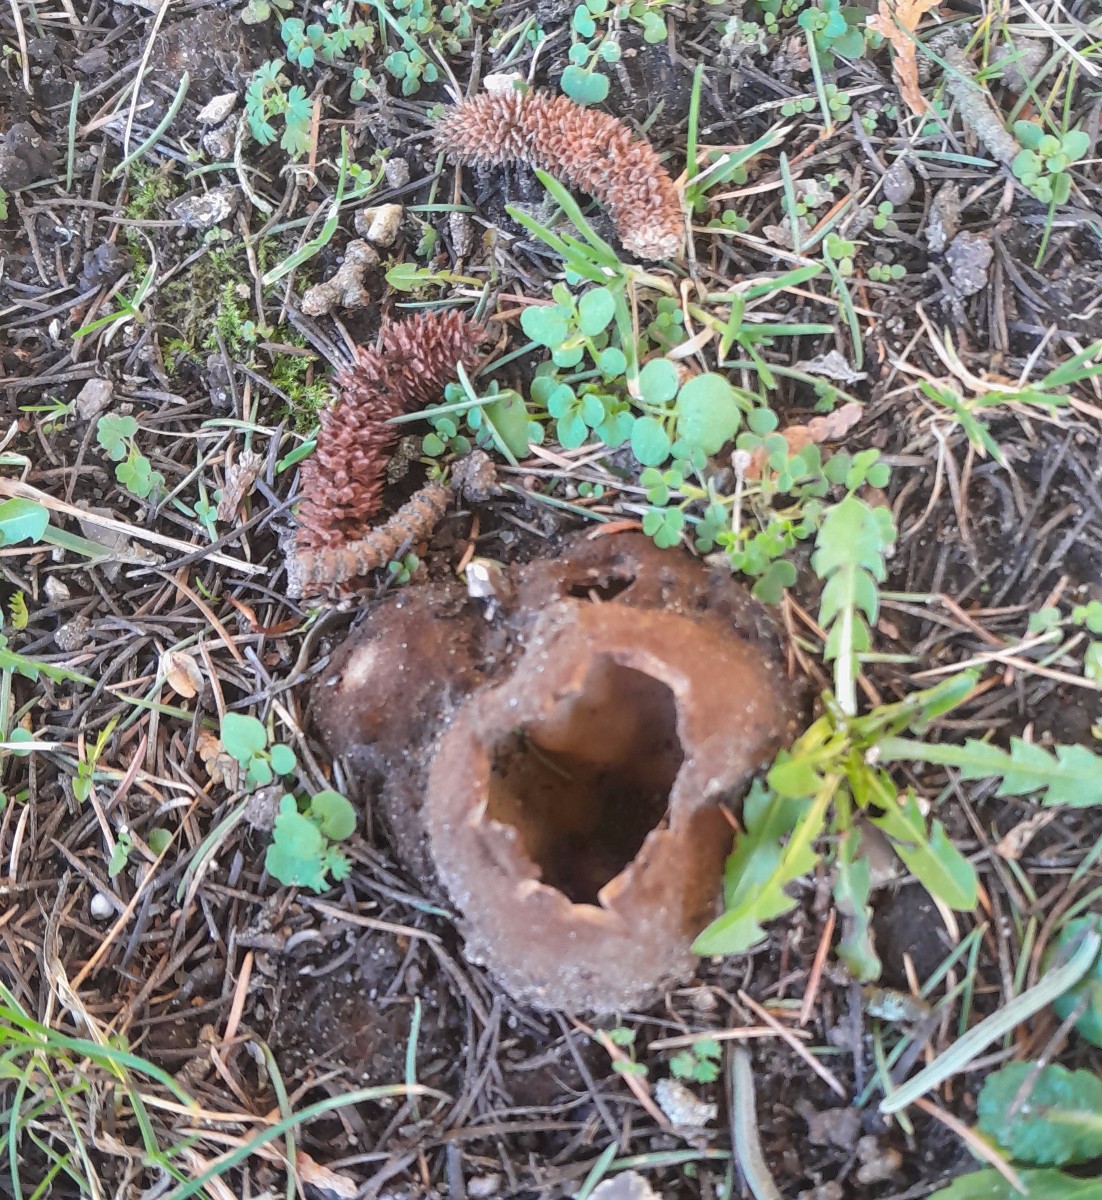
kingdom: Fungi
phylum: Ascomycota
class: Pezizomycetes
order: Pezizales
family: Pyronemataceae
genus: Geopora
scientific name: Geopora sumneriana
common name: vår-jordbæger
